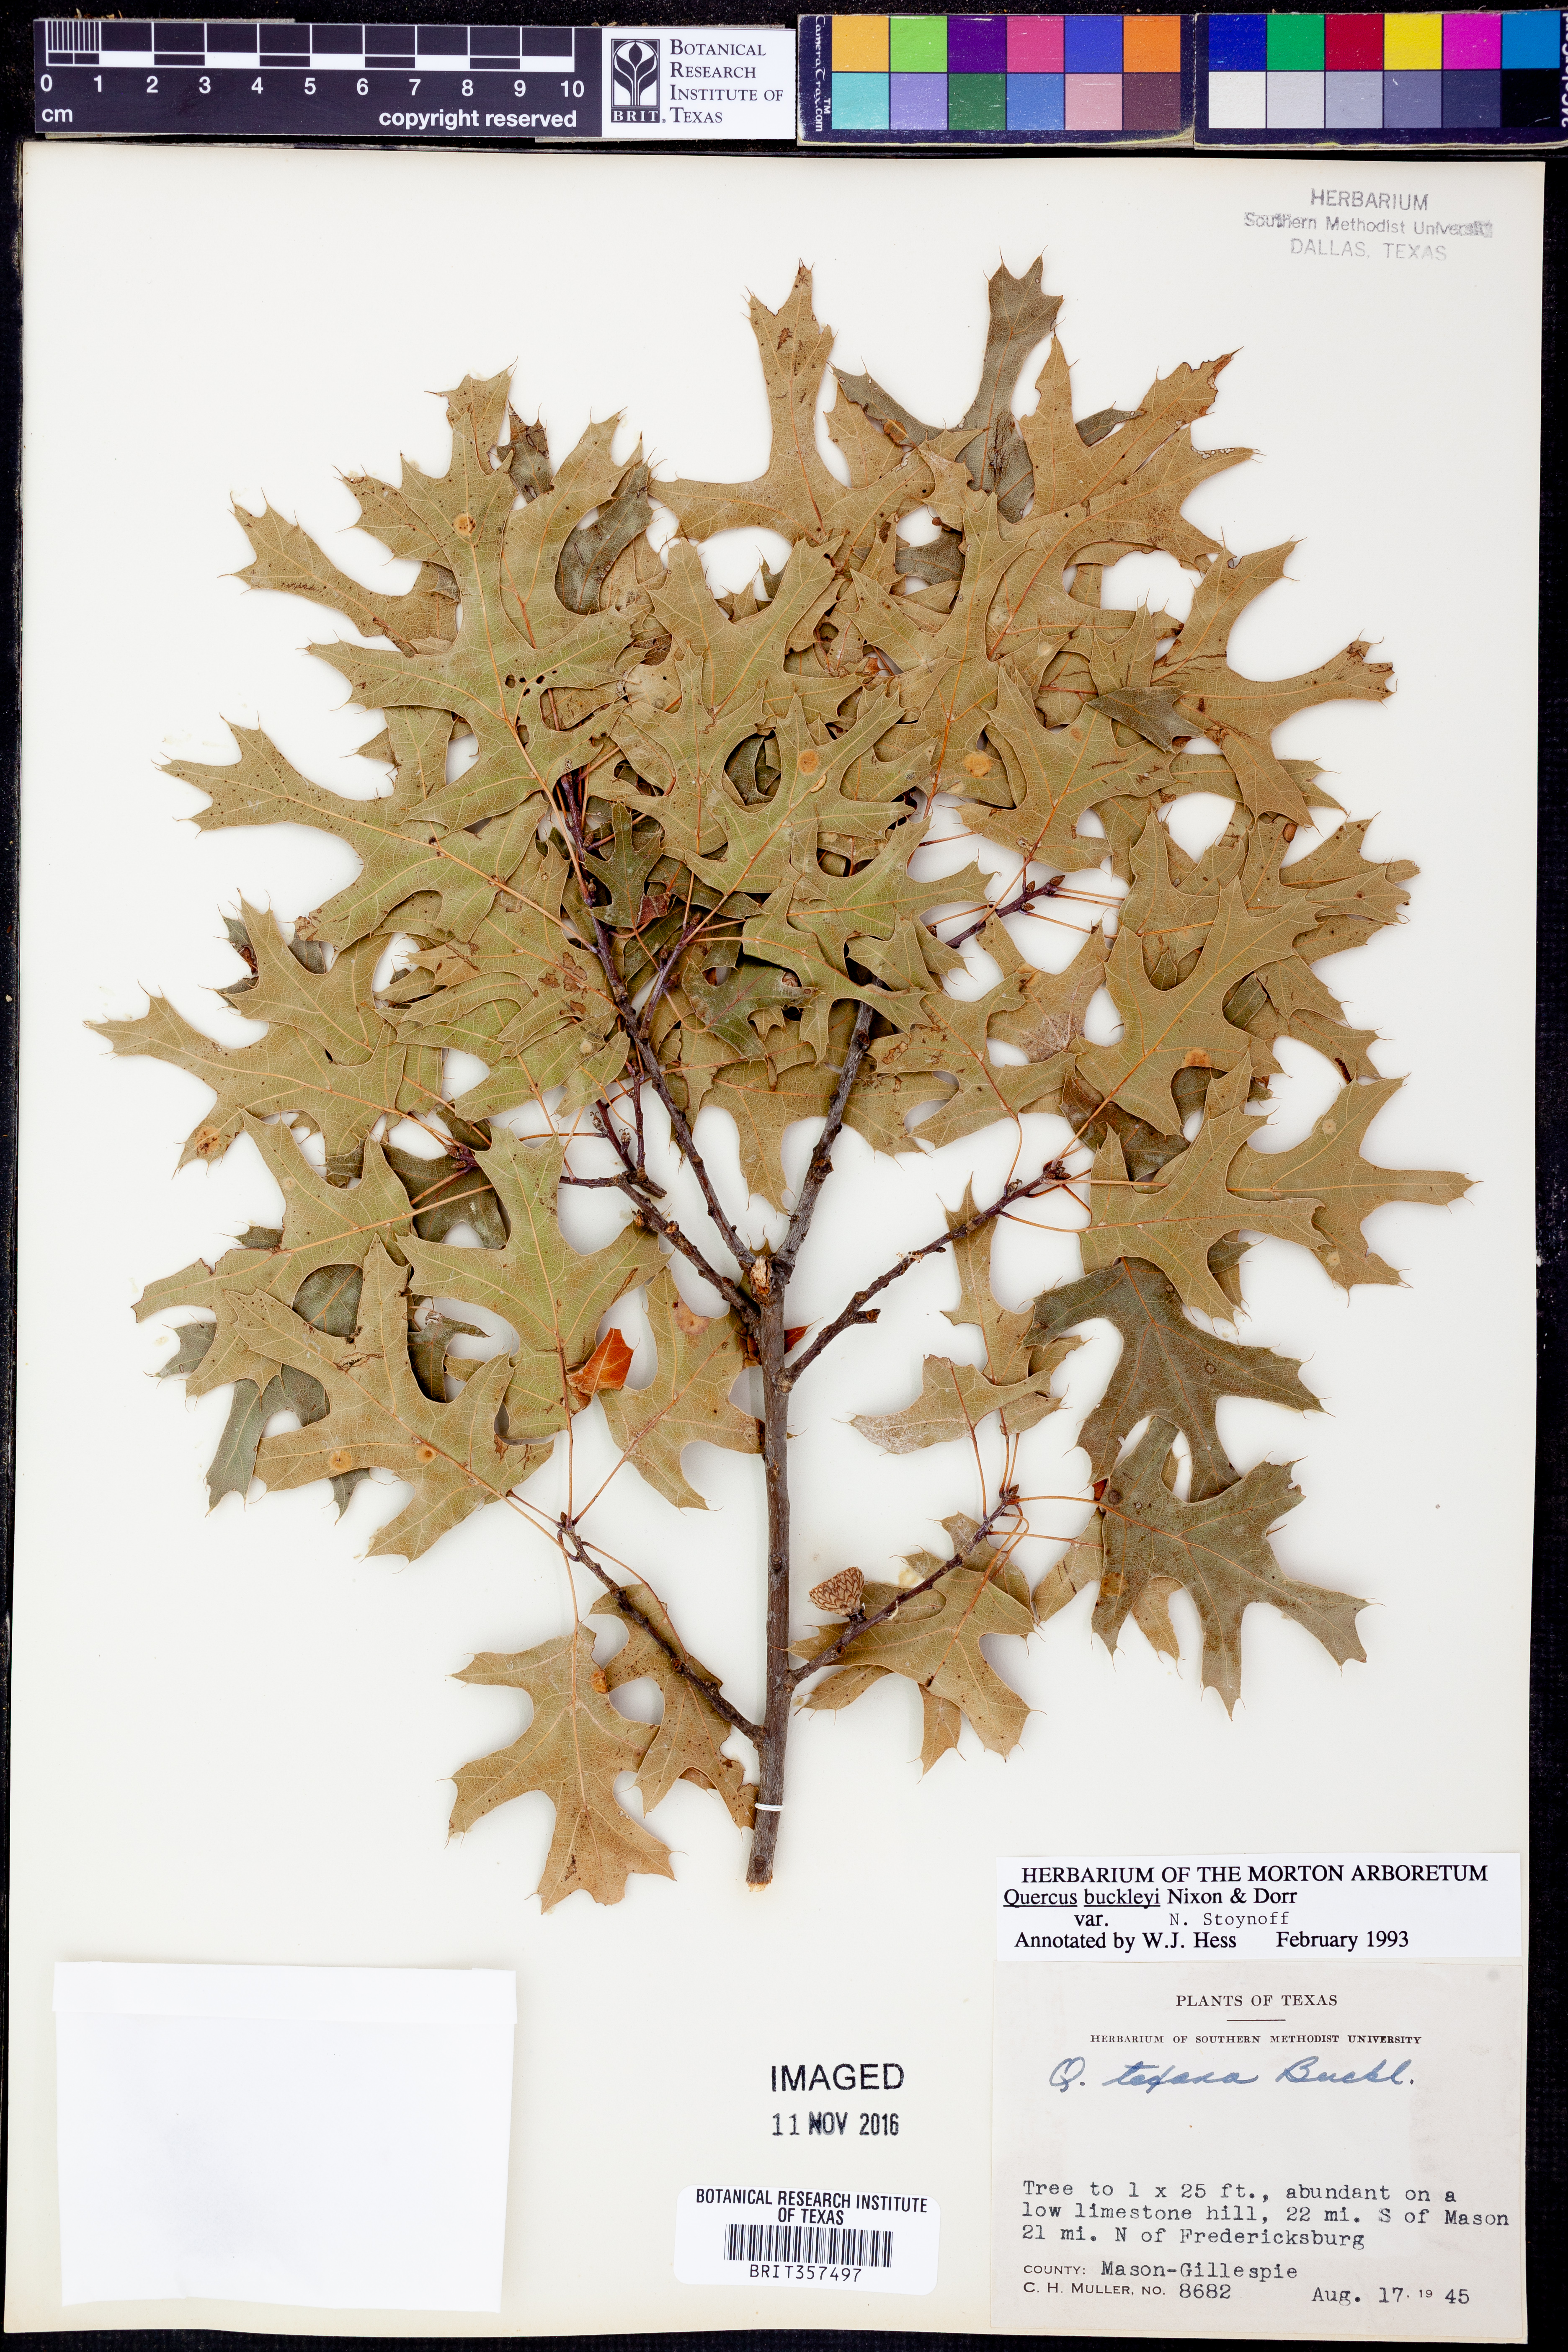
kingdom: Plantae
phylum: Tracheophyta
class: Magnoliopsida
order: Fagales
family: Fagaceae
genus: Quercus
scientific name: Quercus buckleyi
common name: Buckley oak
